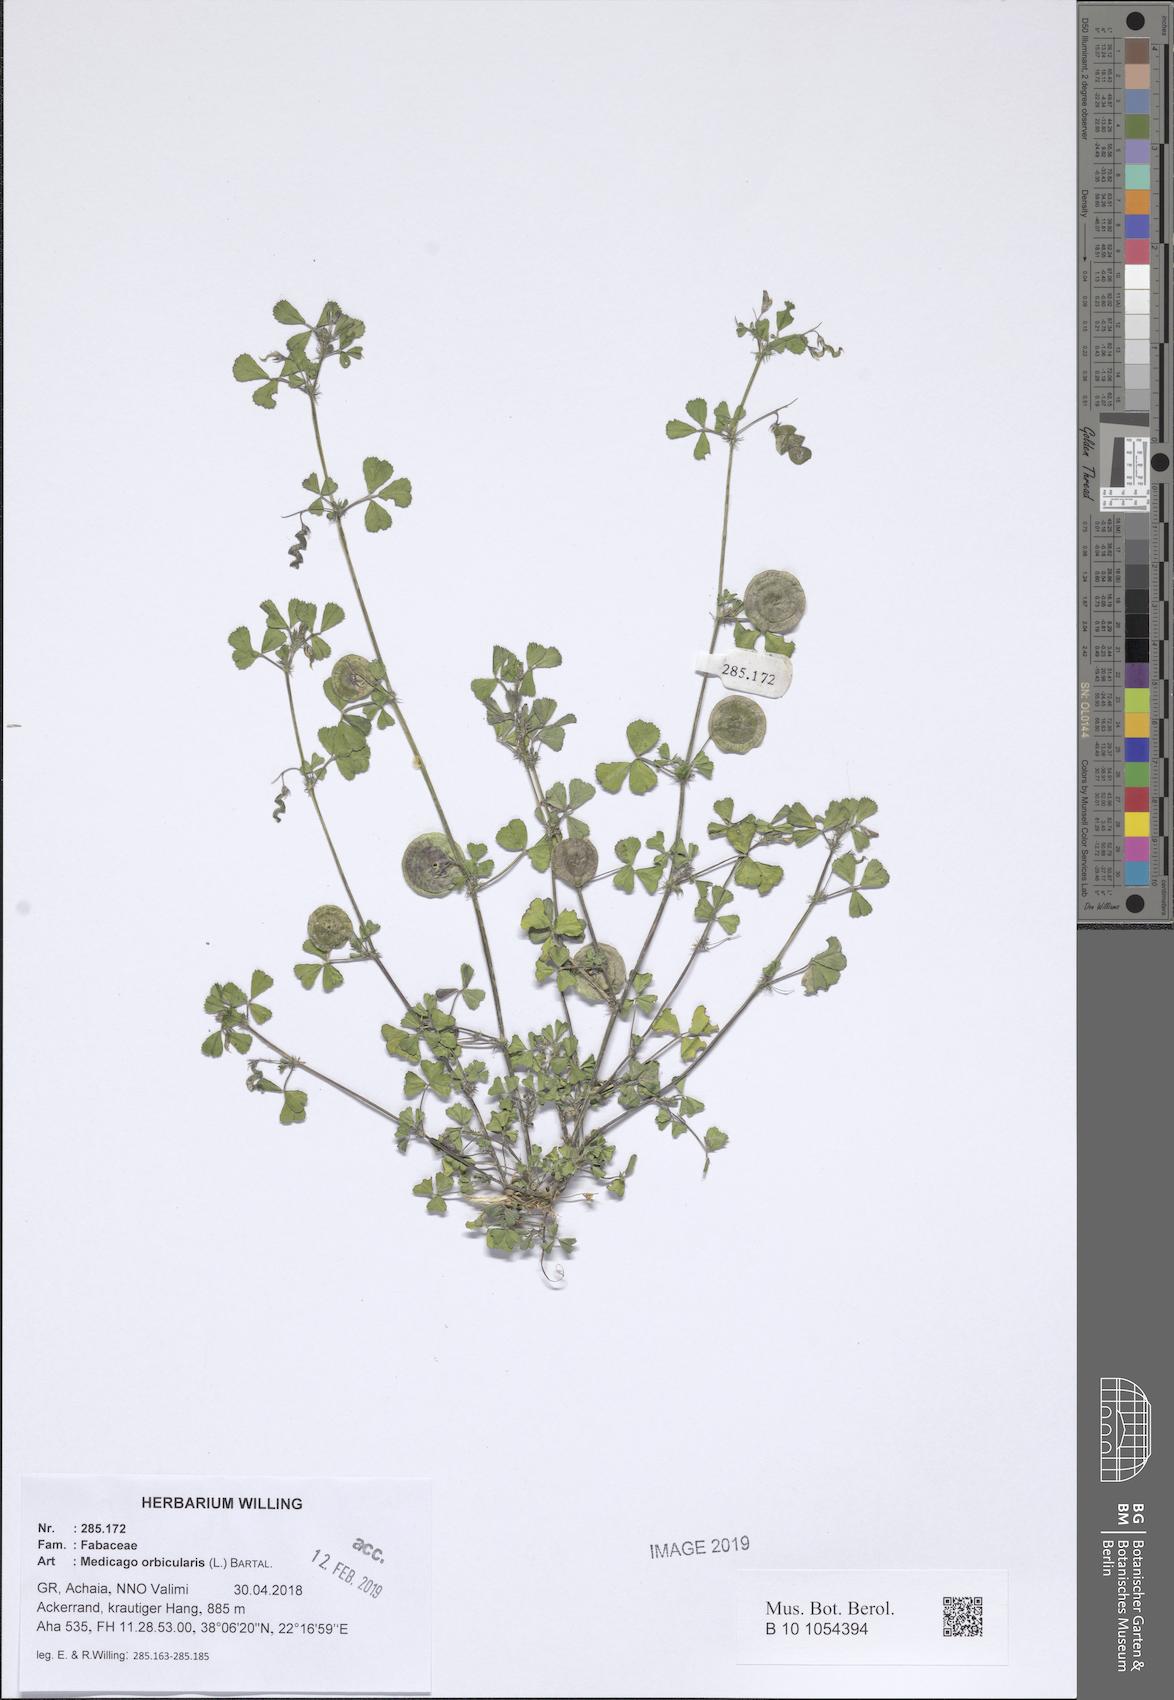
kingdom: Plantae
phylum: Tracheophyta
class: Magnoliopsida
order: Fabales
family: Fabaceae
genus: Medicago
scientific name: Medicago orbicularis
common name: Button medick
